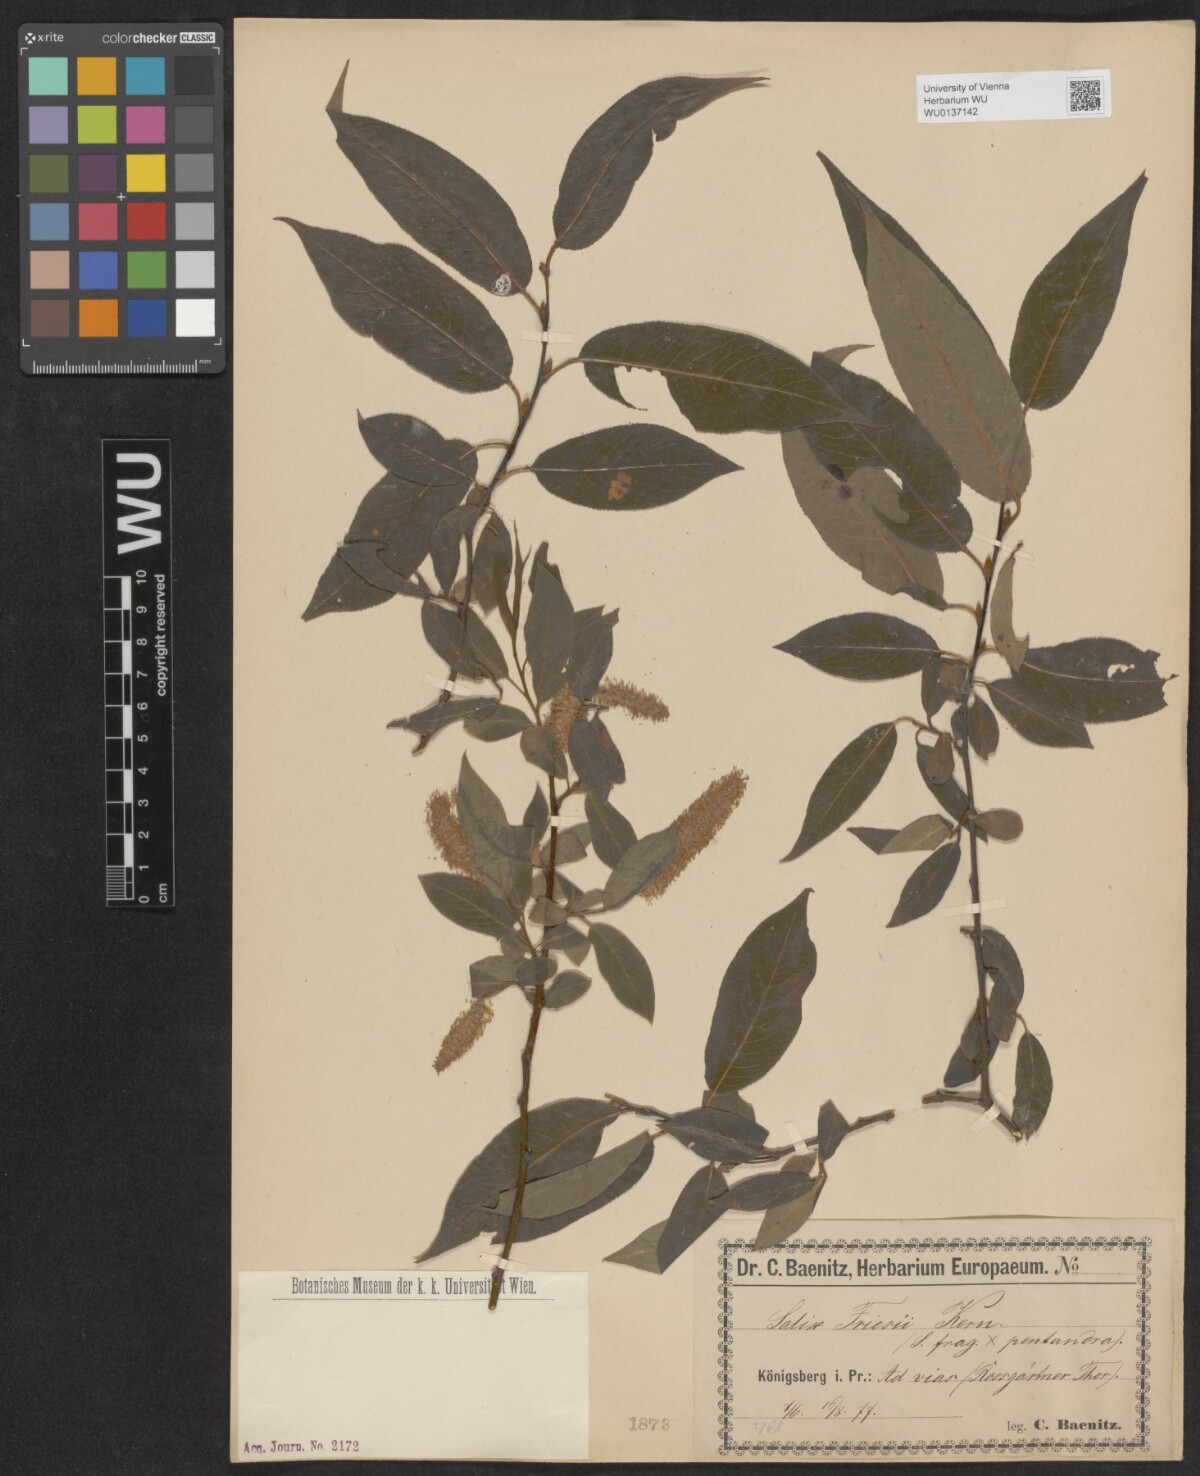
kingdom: Plantae
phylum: Tracheophyta
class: Magnoliopsida
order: Malpighiales
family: Salicaceae
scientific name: Salicaceae
